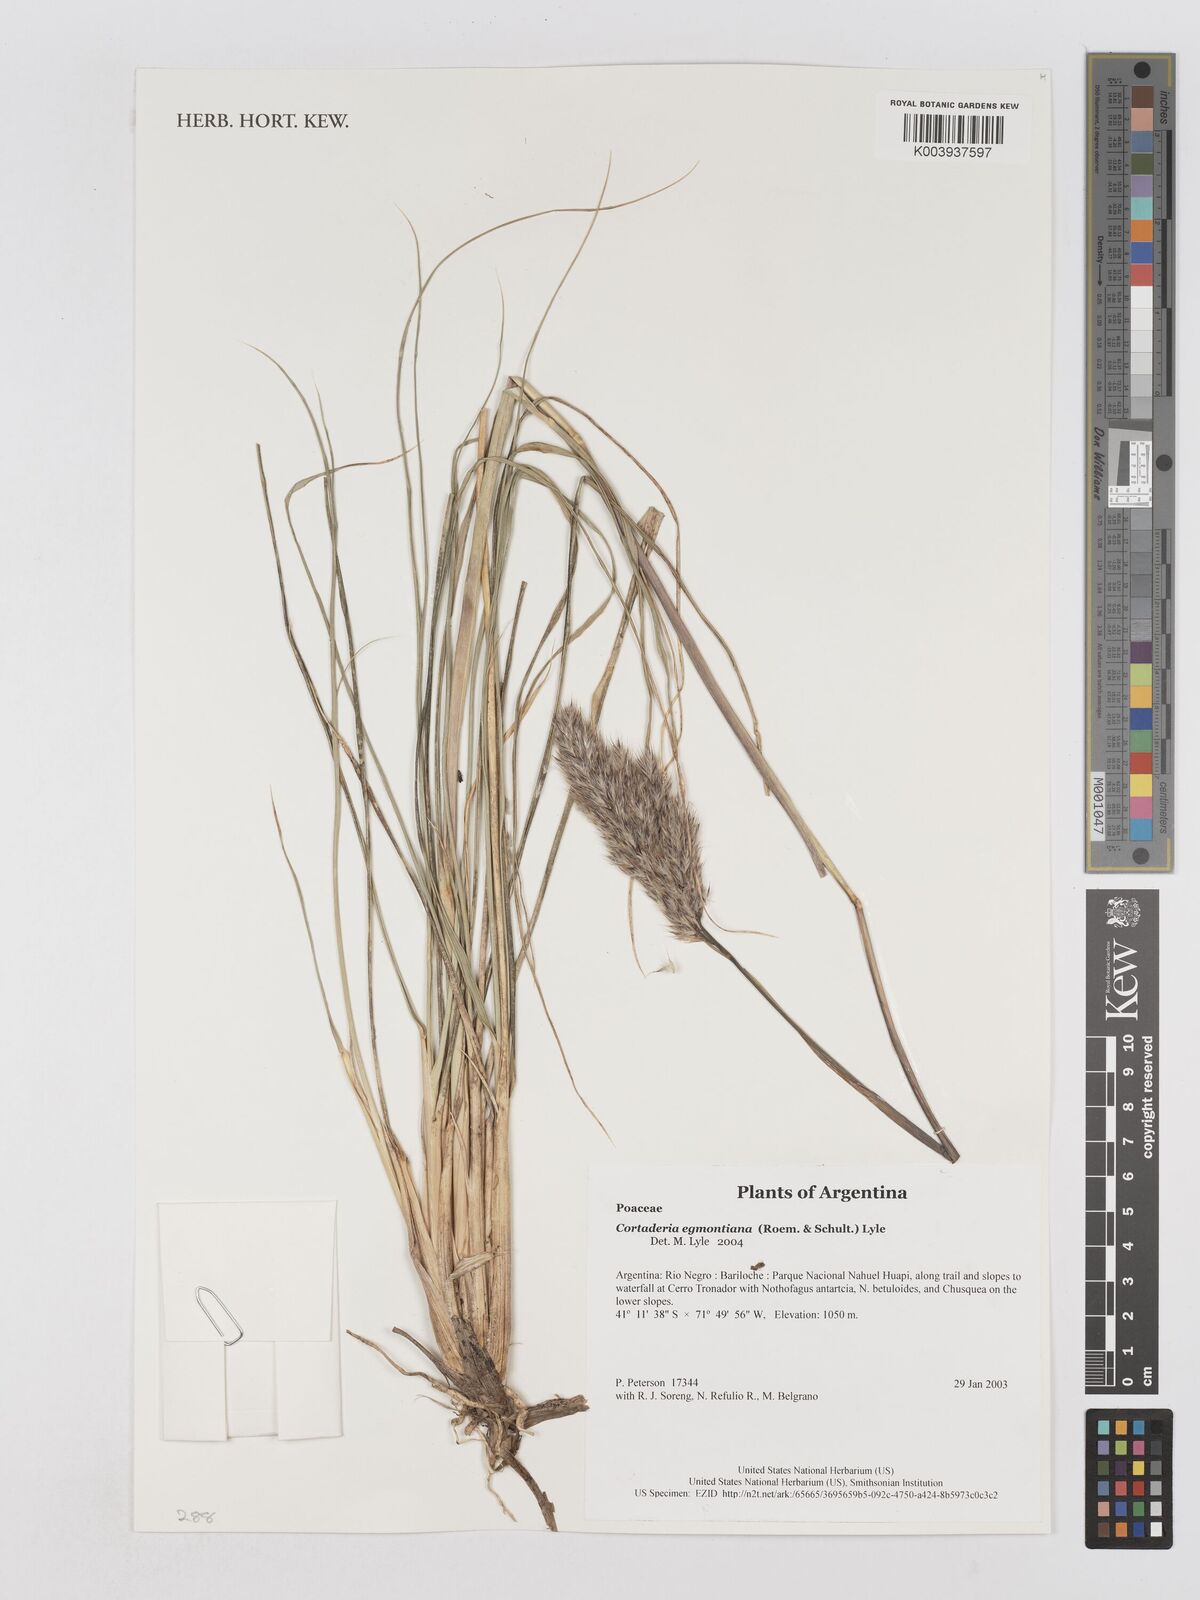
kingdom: Plantae
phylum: Tracheophyta
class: Liliopsida
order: Poales
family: Poaceae
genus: Cortaderia
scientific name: Cortaderia egmontiana
